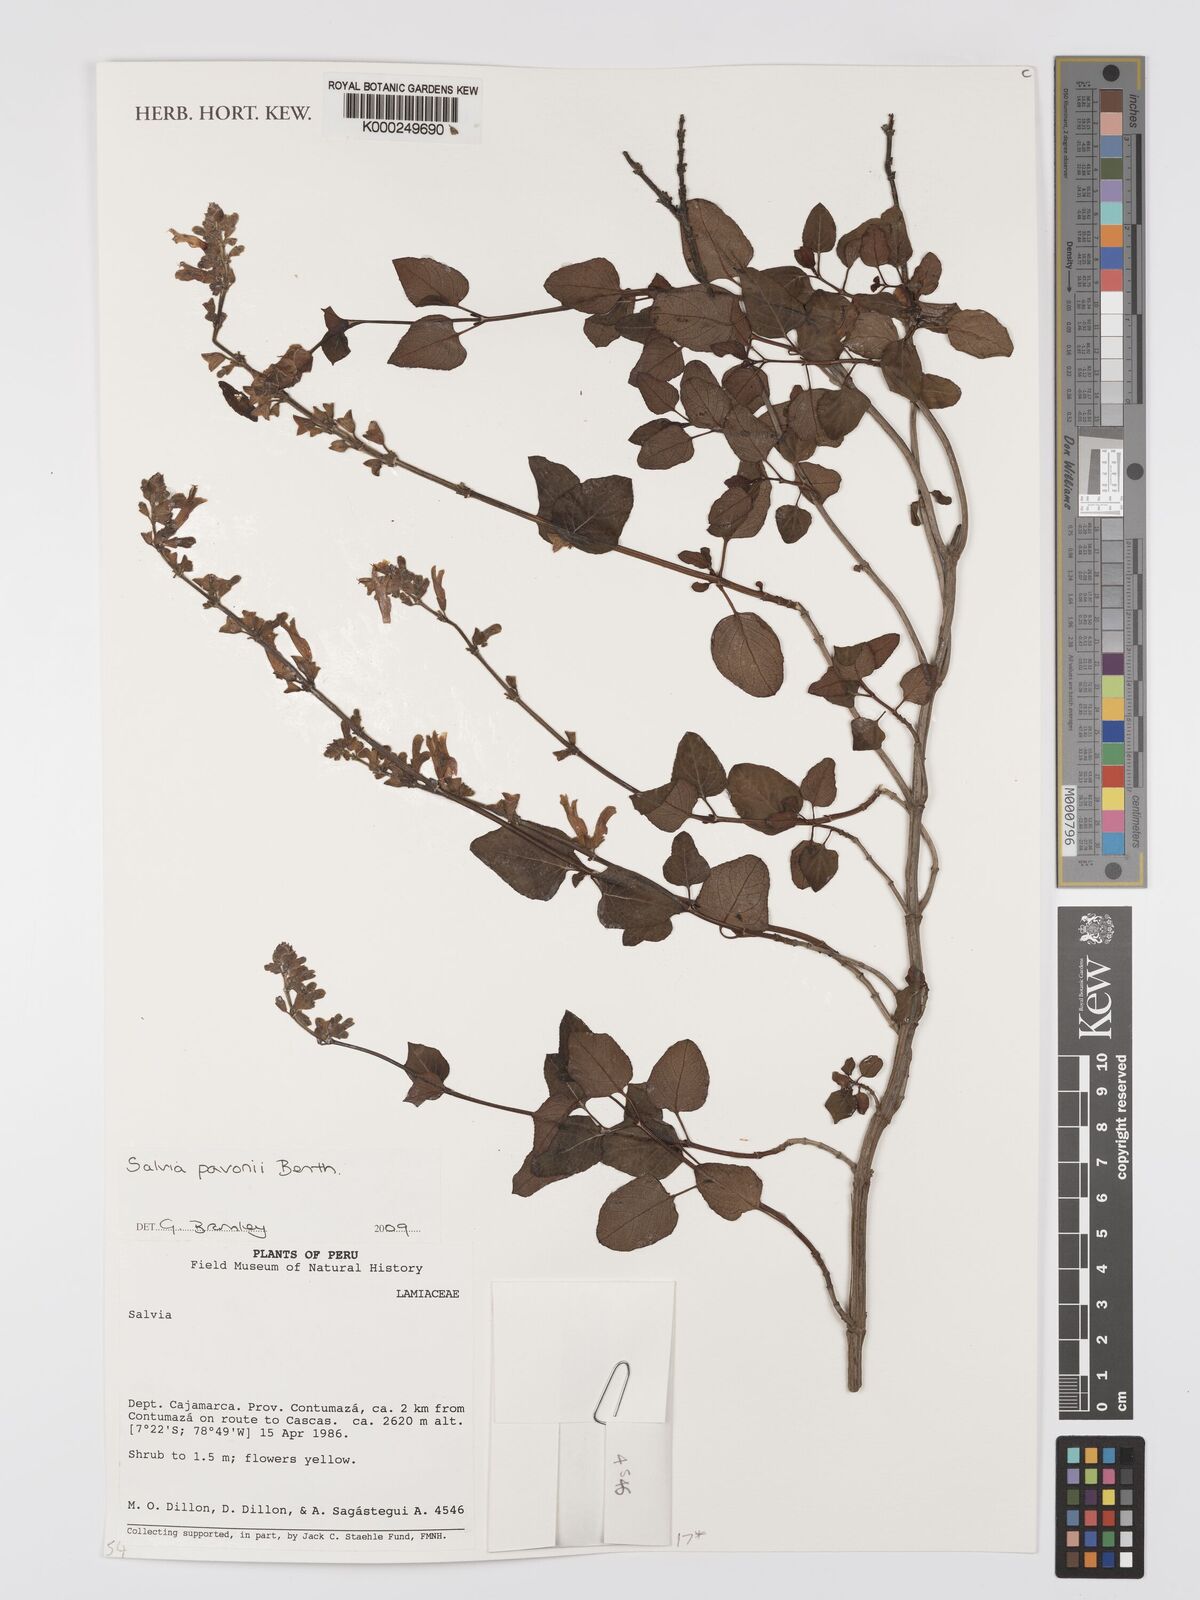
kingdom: Plantae
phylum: Tracheophyta
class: Magnoliopsida
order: Lamiales
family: Lamiaceae
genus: Salvia
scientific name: Salvia pavonii
